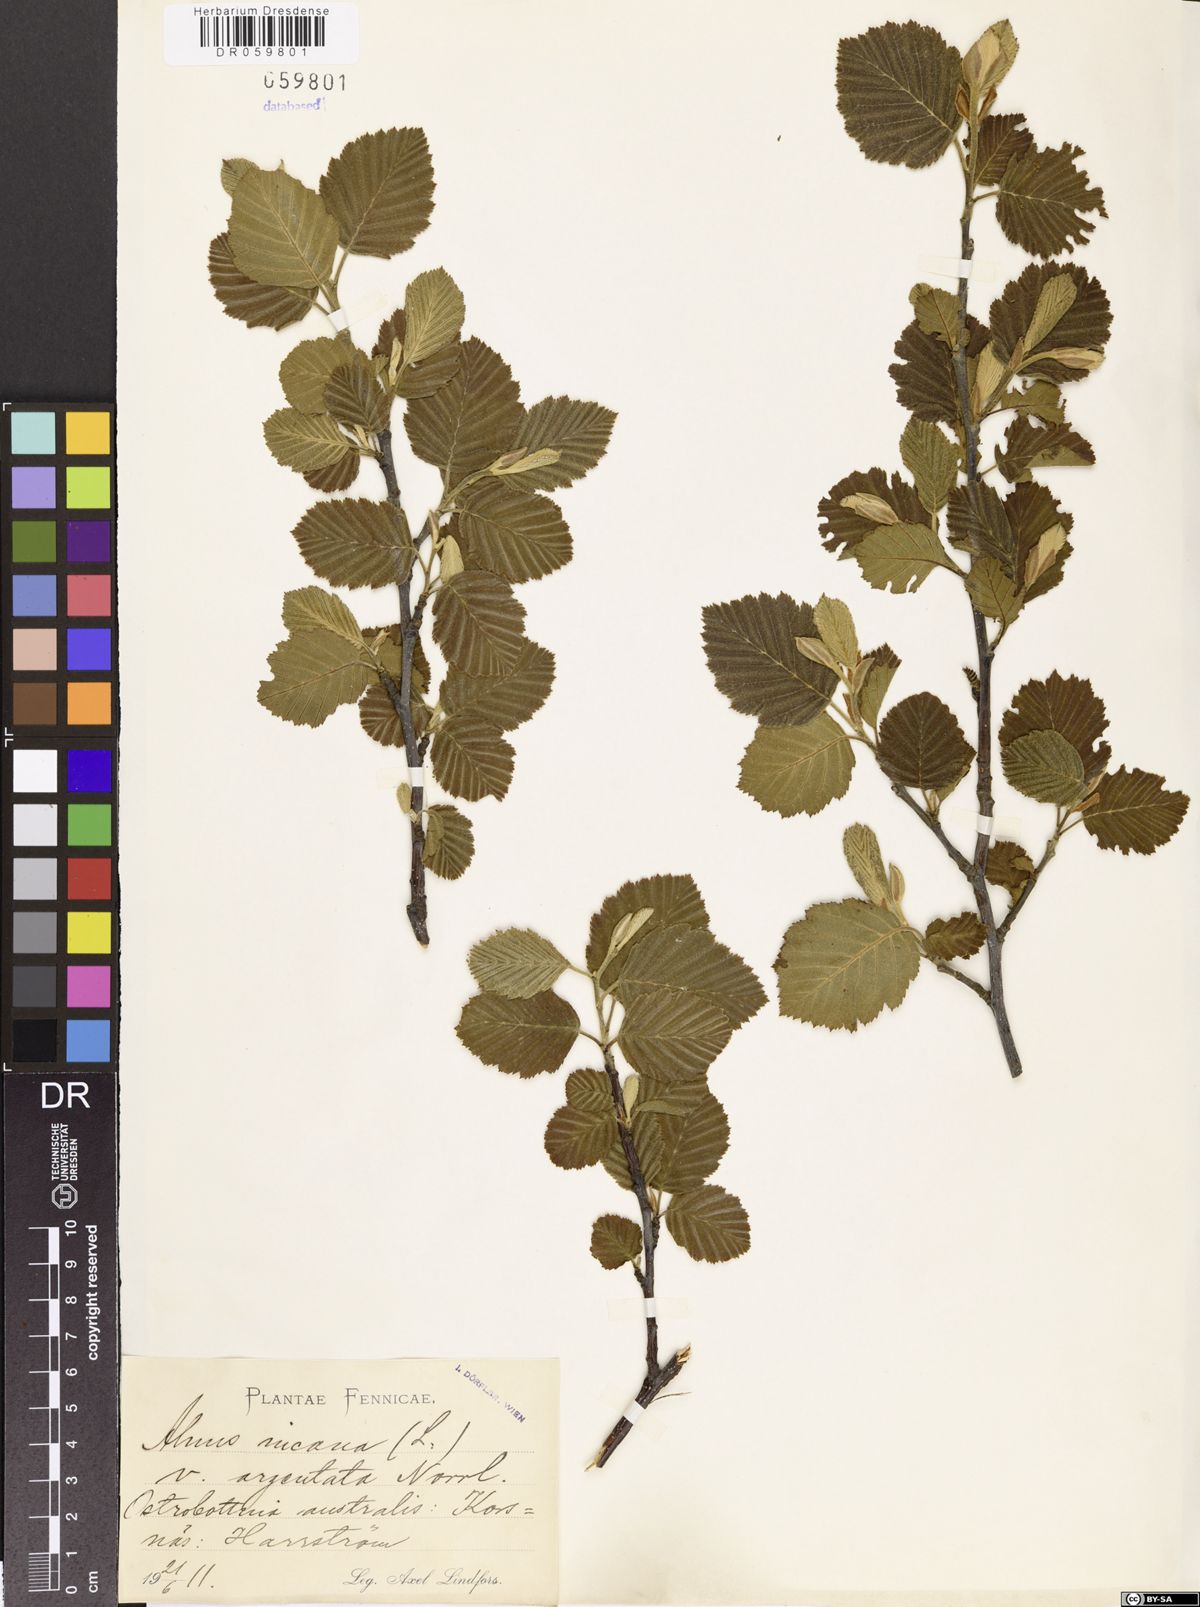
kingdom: Plantae
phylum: Tracheophyta
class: Magnoliopsida
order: Fagales
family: Betulaceae
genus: Alnus
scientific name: Alnus incana
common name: Grey alder
